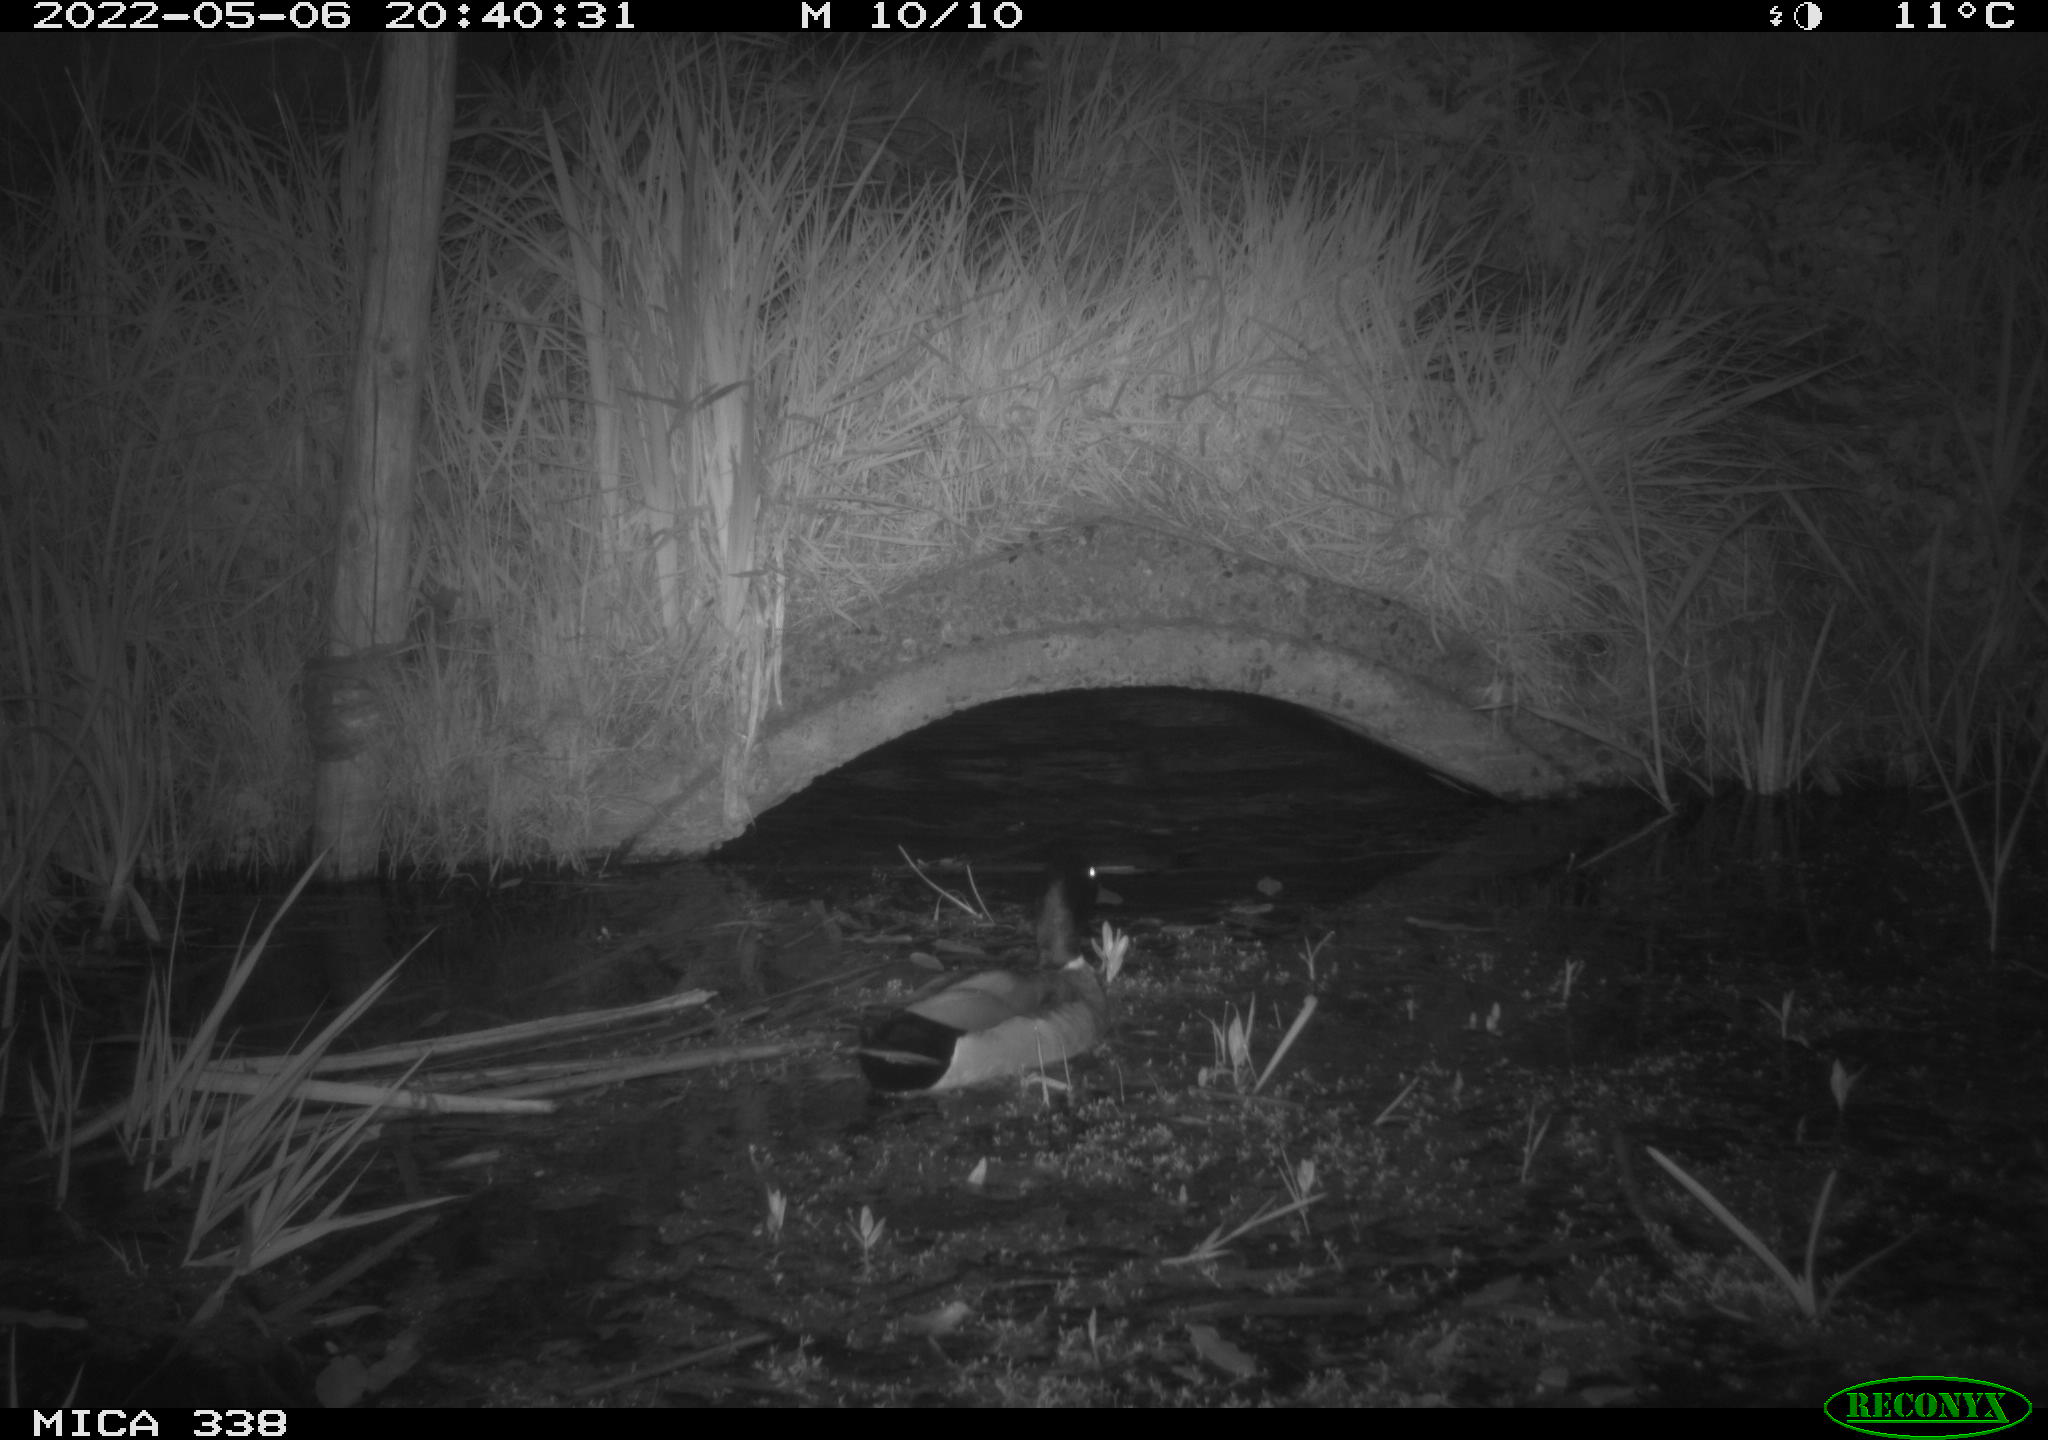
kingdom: Animalia
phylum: Chordata
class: Aves
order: Anseriformes
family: Anatidae
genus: Anas
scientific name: Anas platyrhynchos
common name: Mallard
